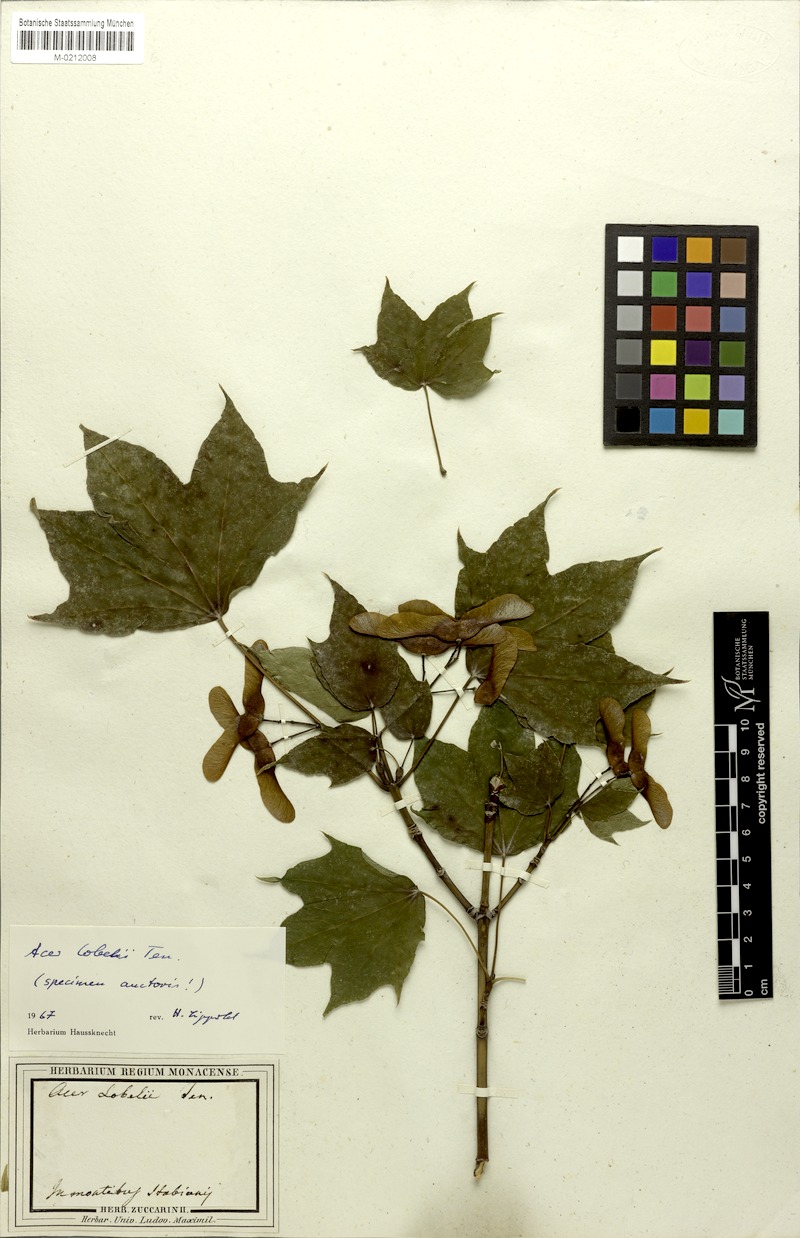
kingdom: Plantae
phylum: Tracheophyta
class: Magnoliopsida
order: Sapindales
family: Sapindaceae
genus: Acer
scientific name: Acer lobelii
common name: Lobel's maple
